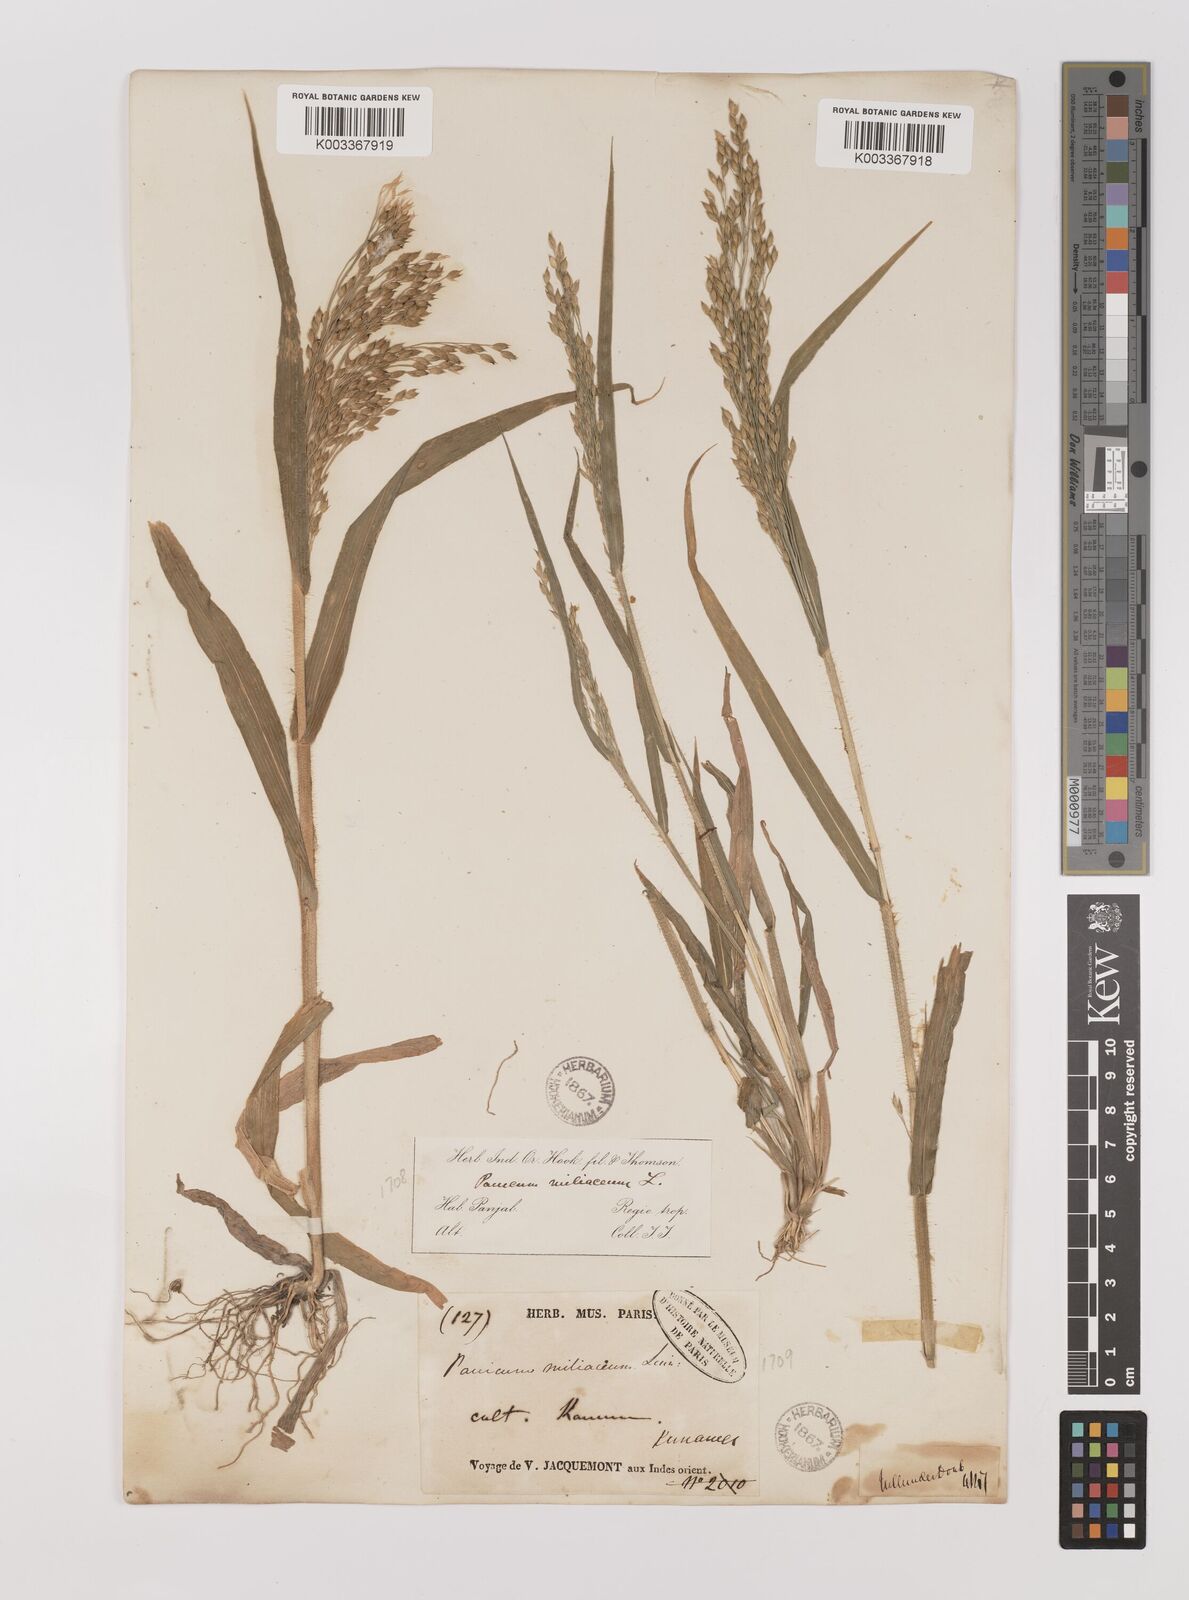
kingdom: Plantae
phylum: Tracheophyta
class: Liliopsida
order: Poales
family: Poaceae
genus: Panicum
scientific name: Panicum miliaceum
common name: Common millet
